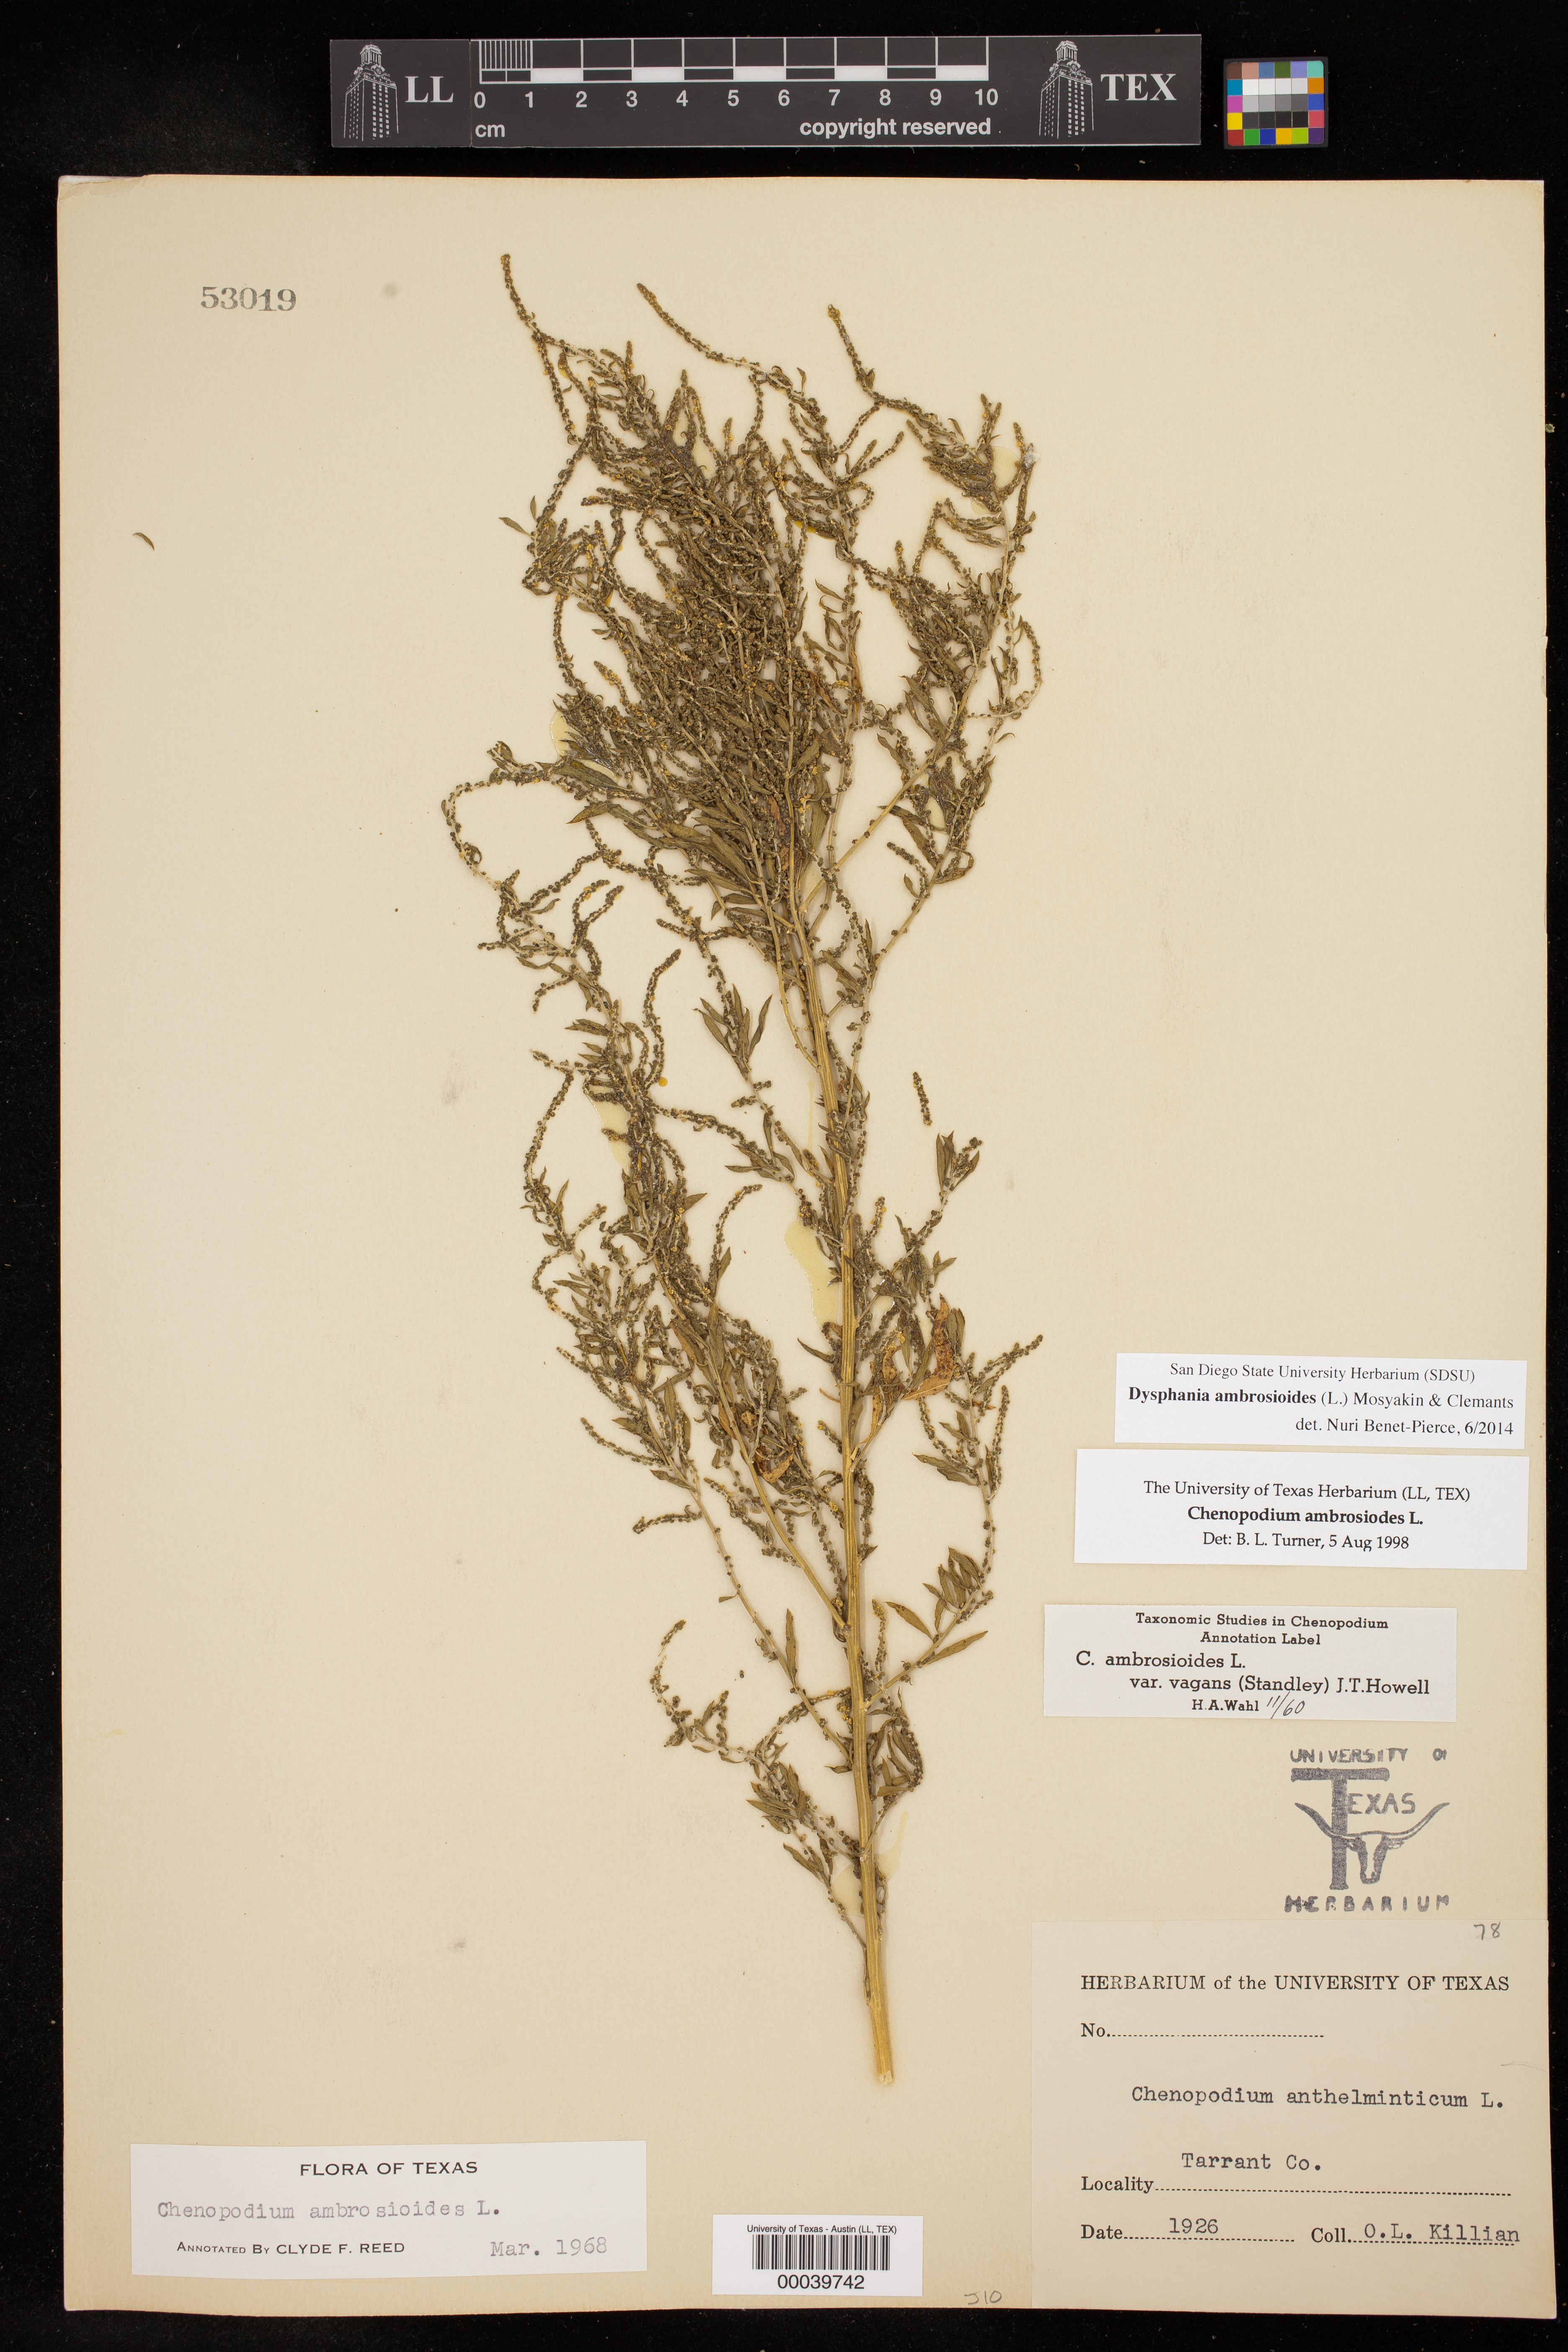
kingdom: Plantae
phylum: Tracheophyta
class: Magnoliopsida
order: Caryophyllales
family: Amaranthaceae
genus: Dysphania
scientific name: Dysphania ambrosioides
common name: Wormseed
